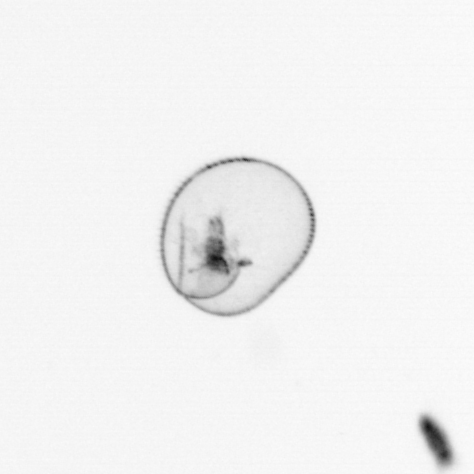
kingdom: Chromista
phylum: Myzozoa
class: Dinophyceae
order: Noctilucales
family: Noctilucaceae
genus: Noctiluca
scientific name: Noctiluca scintillans
